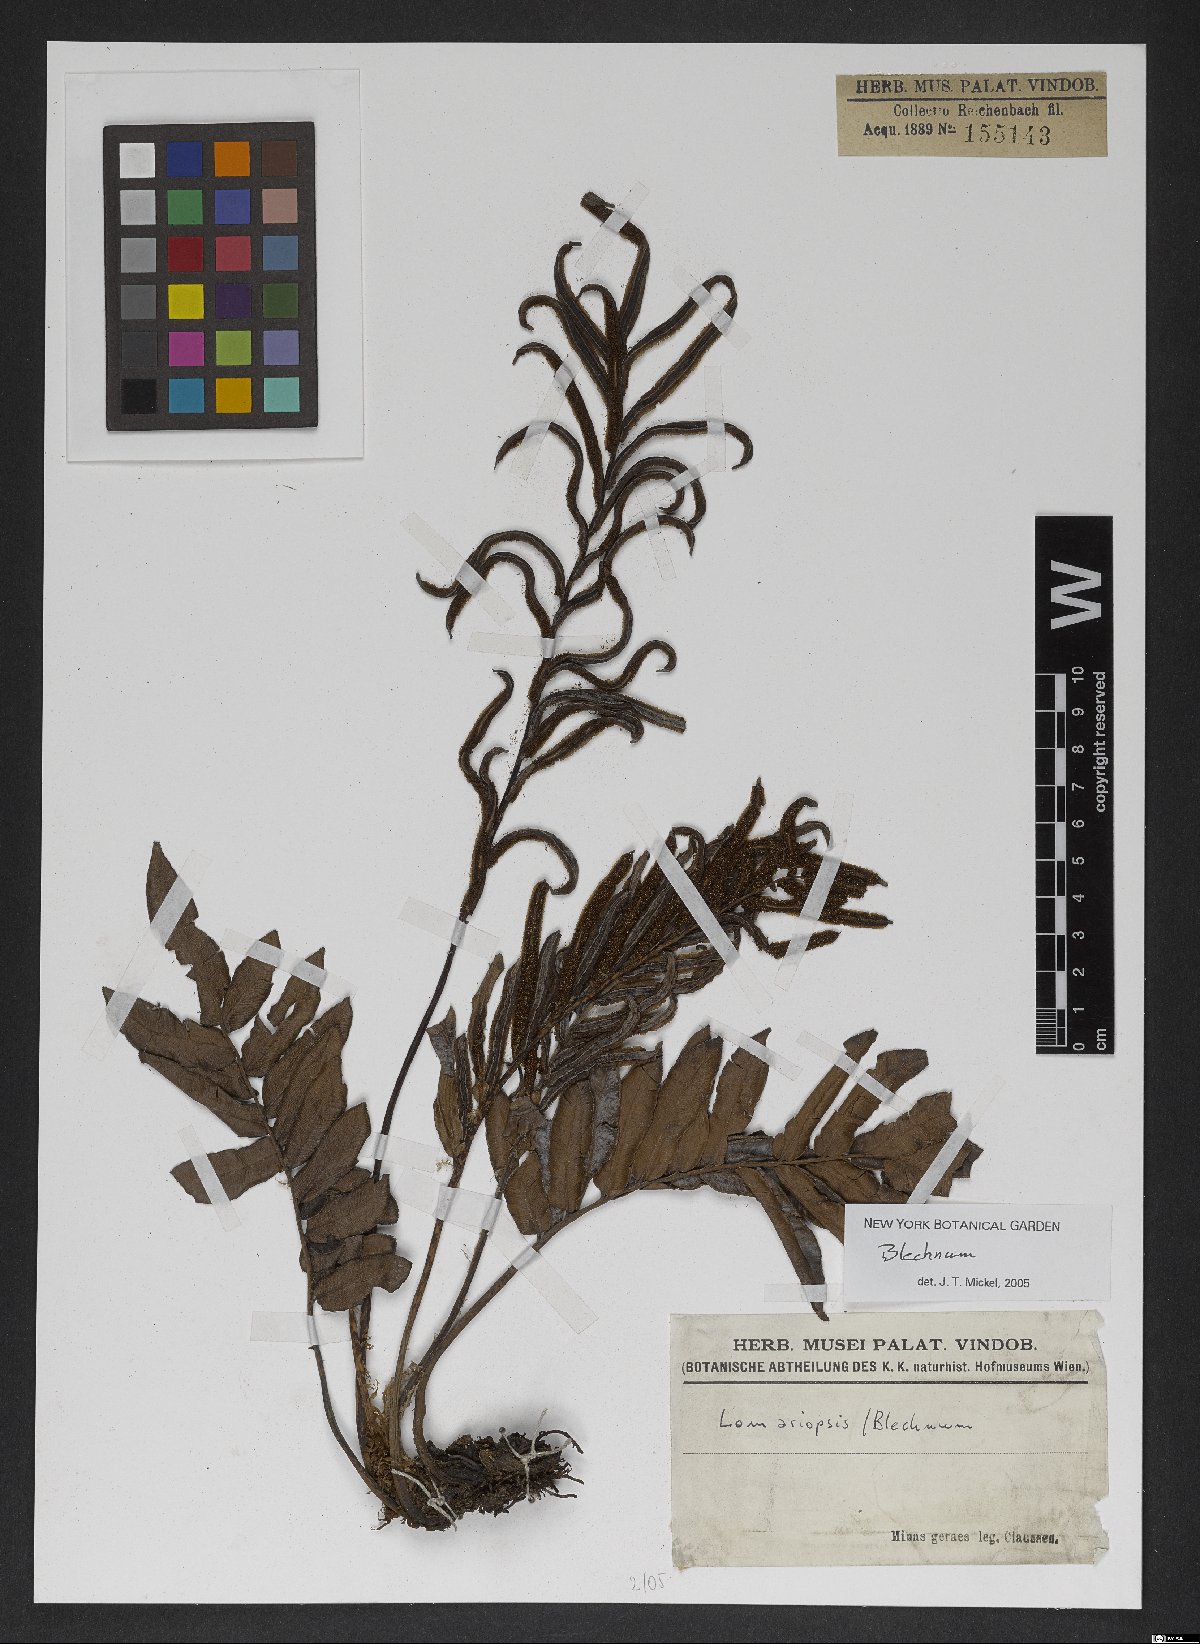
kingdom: Plantae
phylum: Tracheophyta
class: Polypodiopsida
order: Polypodiales
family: Blechnaceae
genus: Blechnum
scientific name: Blechnum
